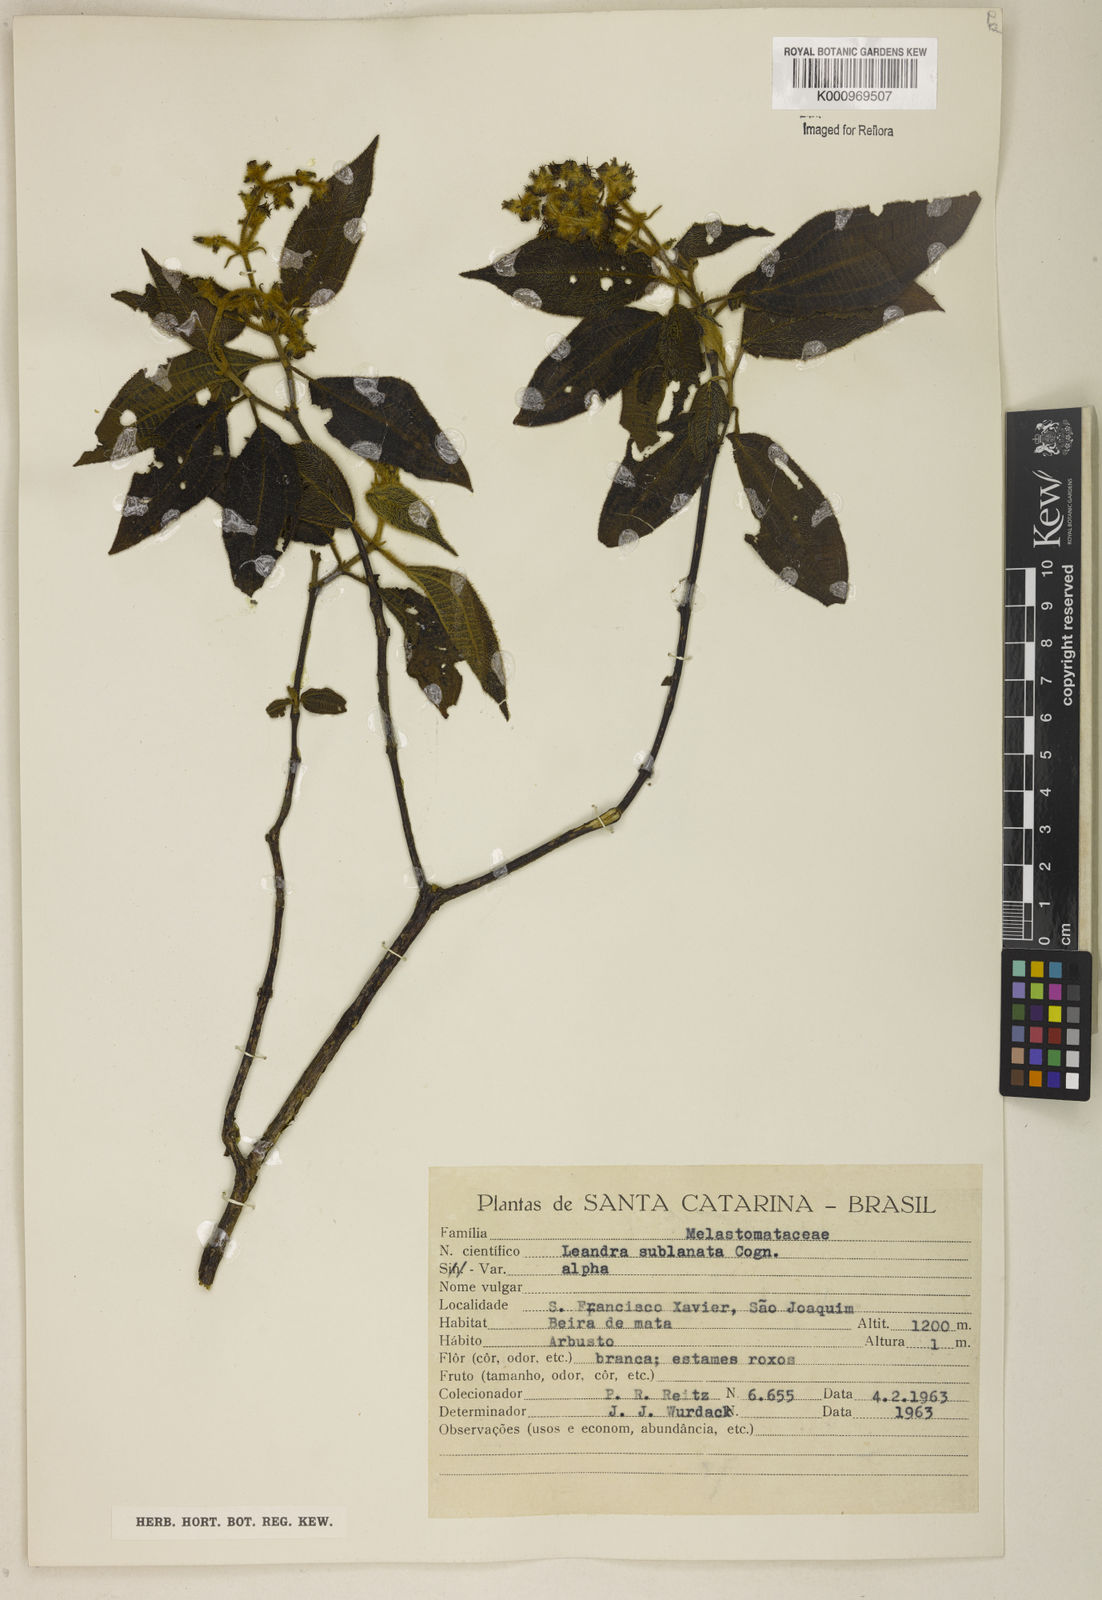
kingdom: Plantae
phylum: Tracheophyta
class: Magnoliopsida
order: Myrtales
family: Melastomataceae
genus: Miconia
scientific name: Miconia sublanata
